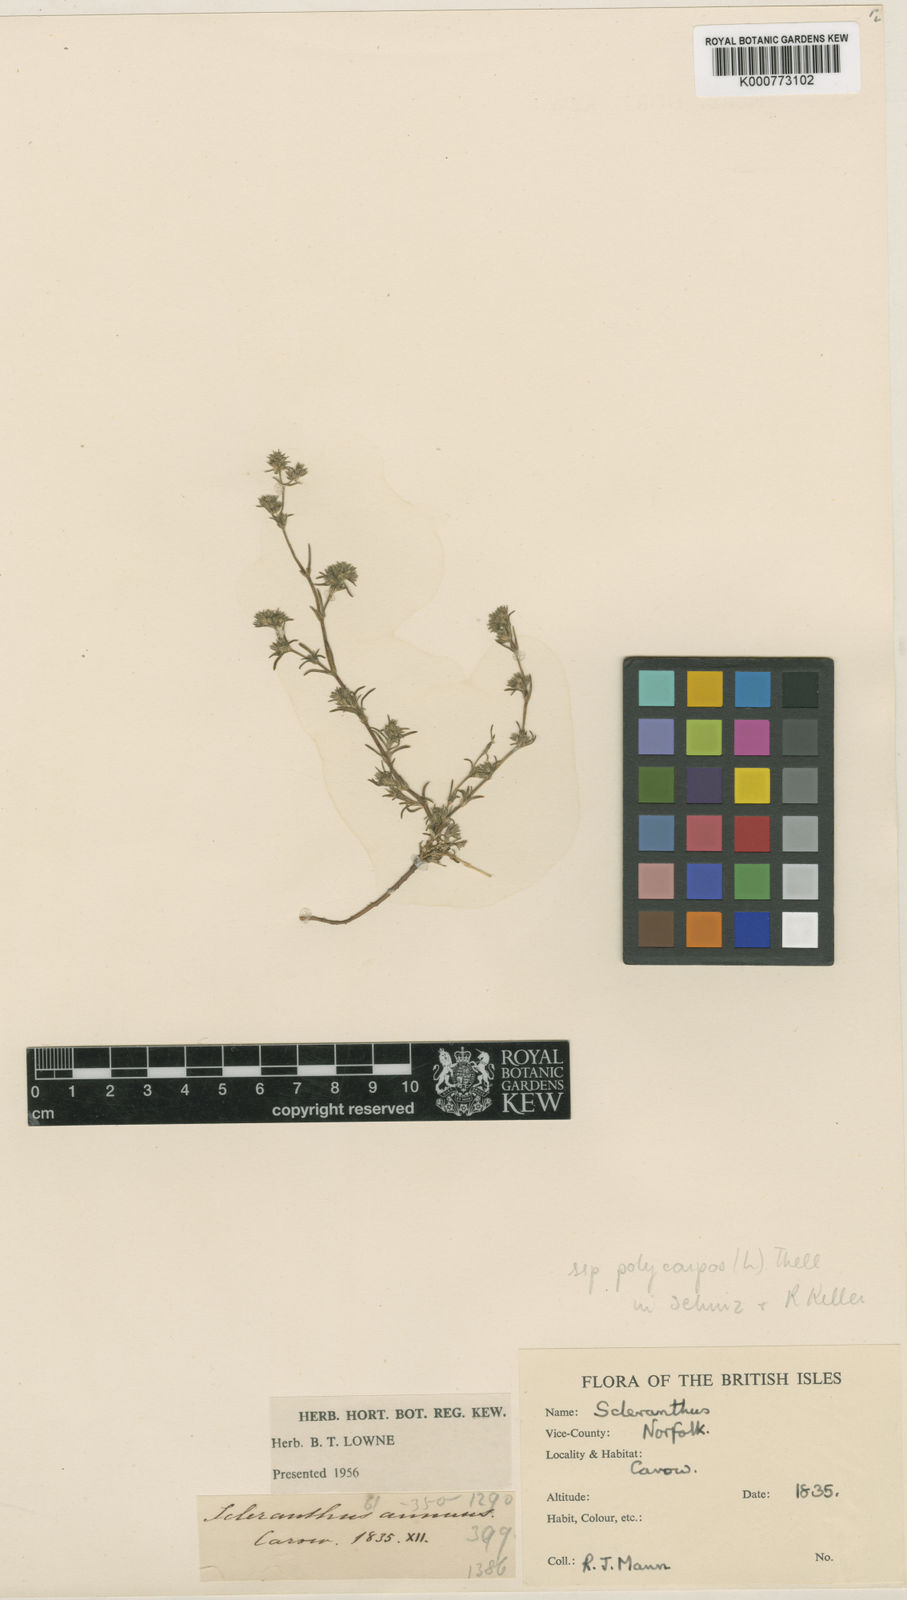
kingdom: Plantae
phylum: Tracheophyta
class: Magnoliopsida
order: Caryophyllales
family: Caryophyllaceae
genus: Scleranthus
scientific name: Scleranthus annuus
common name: Annual knawel
